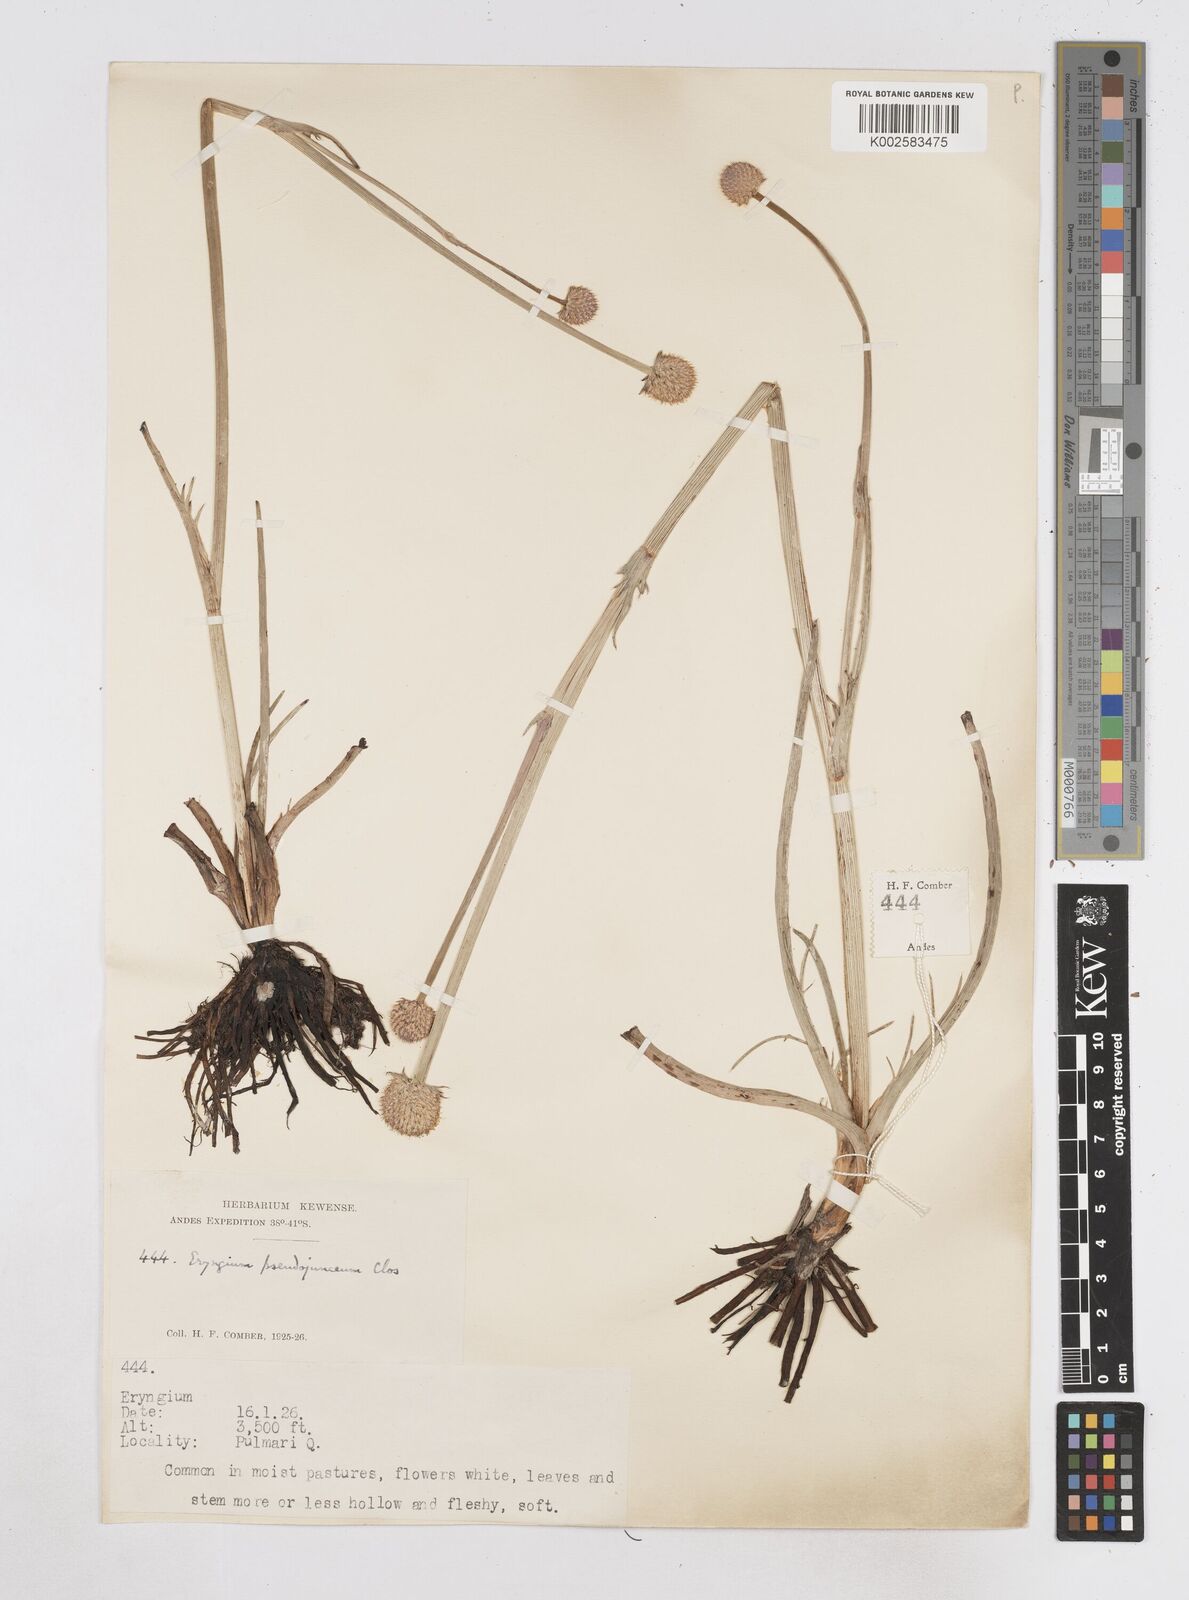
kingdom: Plantae
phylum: Tracheophyta
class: Magnoliopsida
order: Apiales
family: Apiaceae
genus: Eryngium
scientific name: Eryngium pseudojunceum
